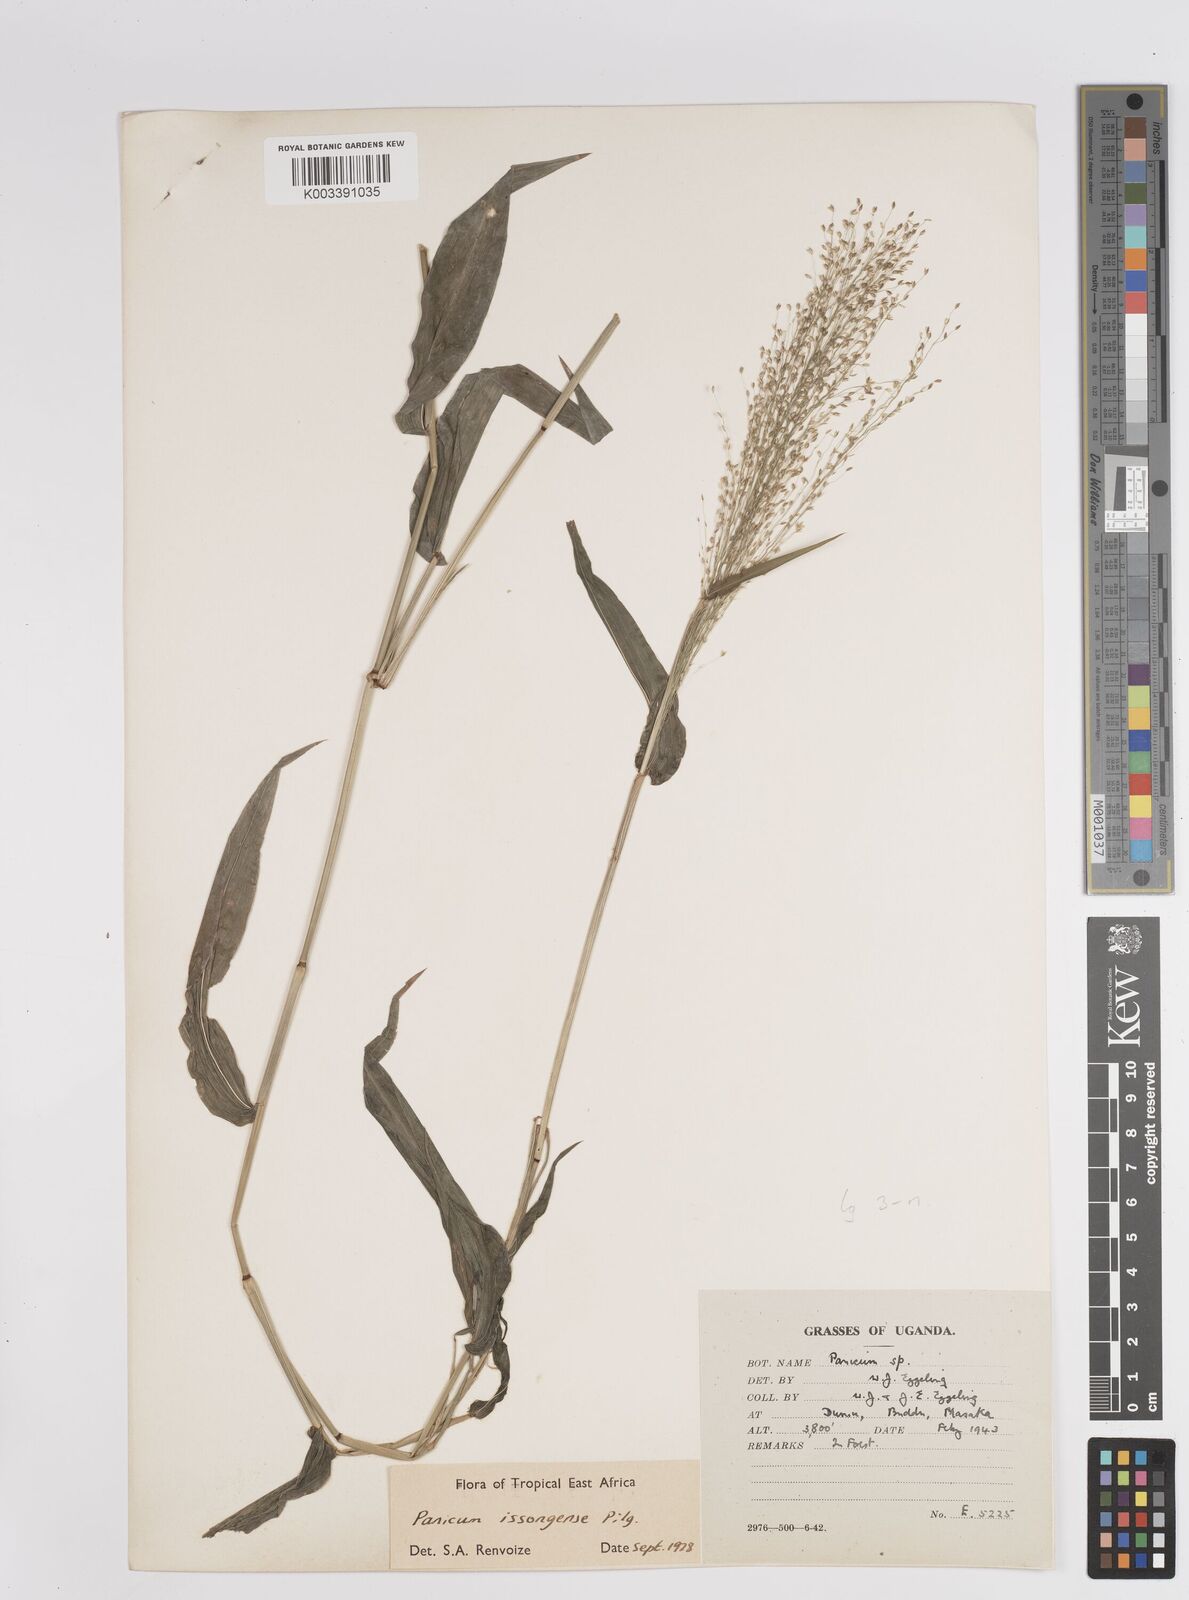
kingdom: Plantae
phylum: Tracheophyta
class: Liliopsida
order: Poales
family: Poaceae
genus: Panicum
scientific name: Panicum issongense
